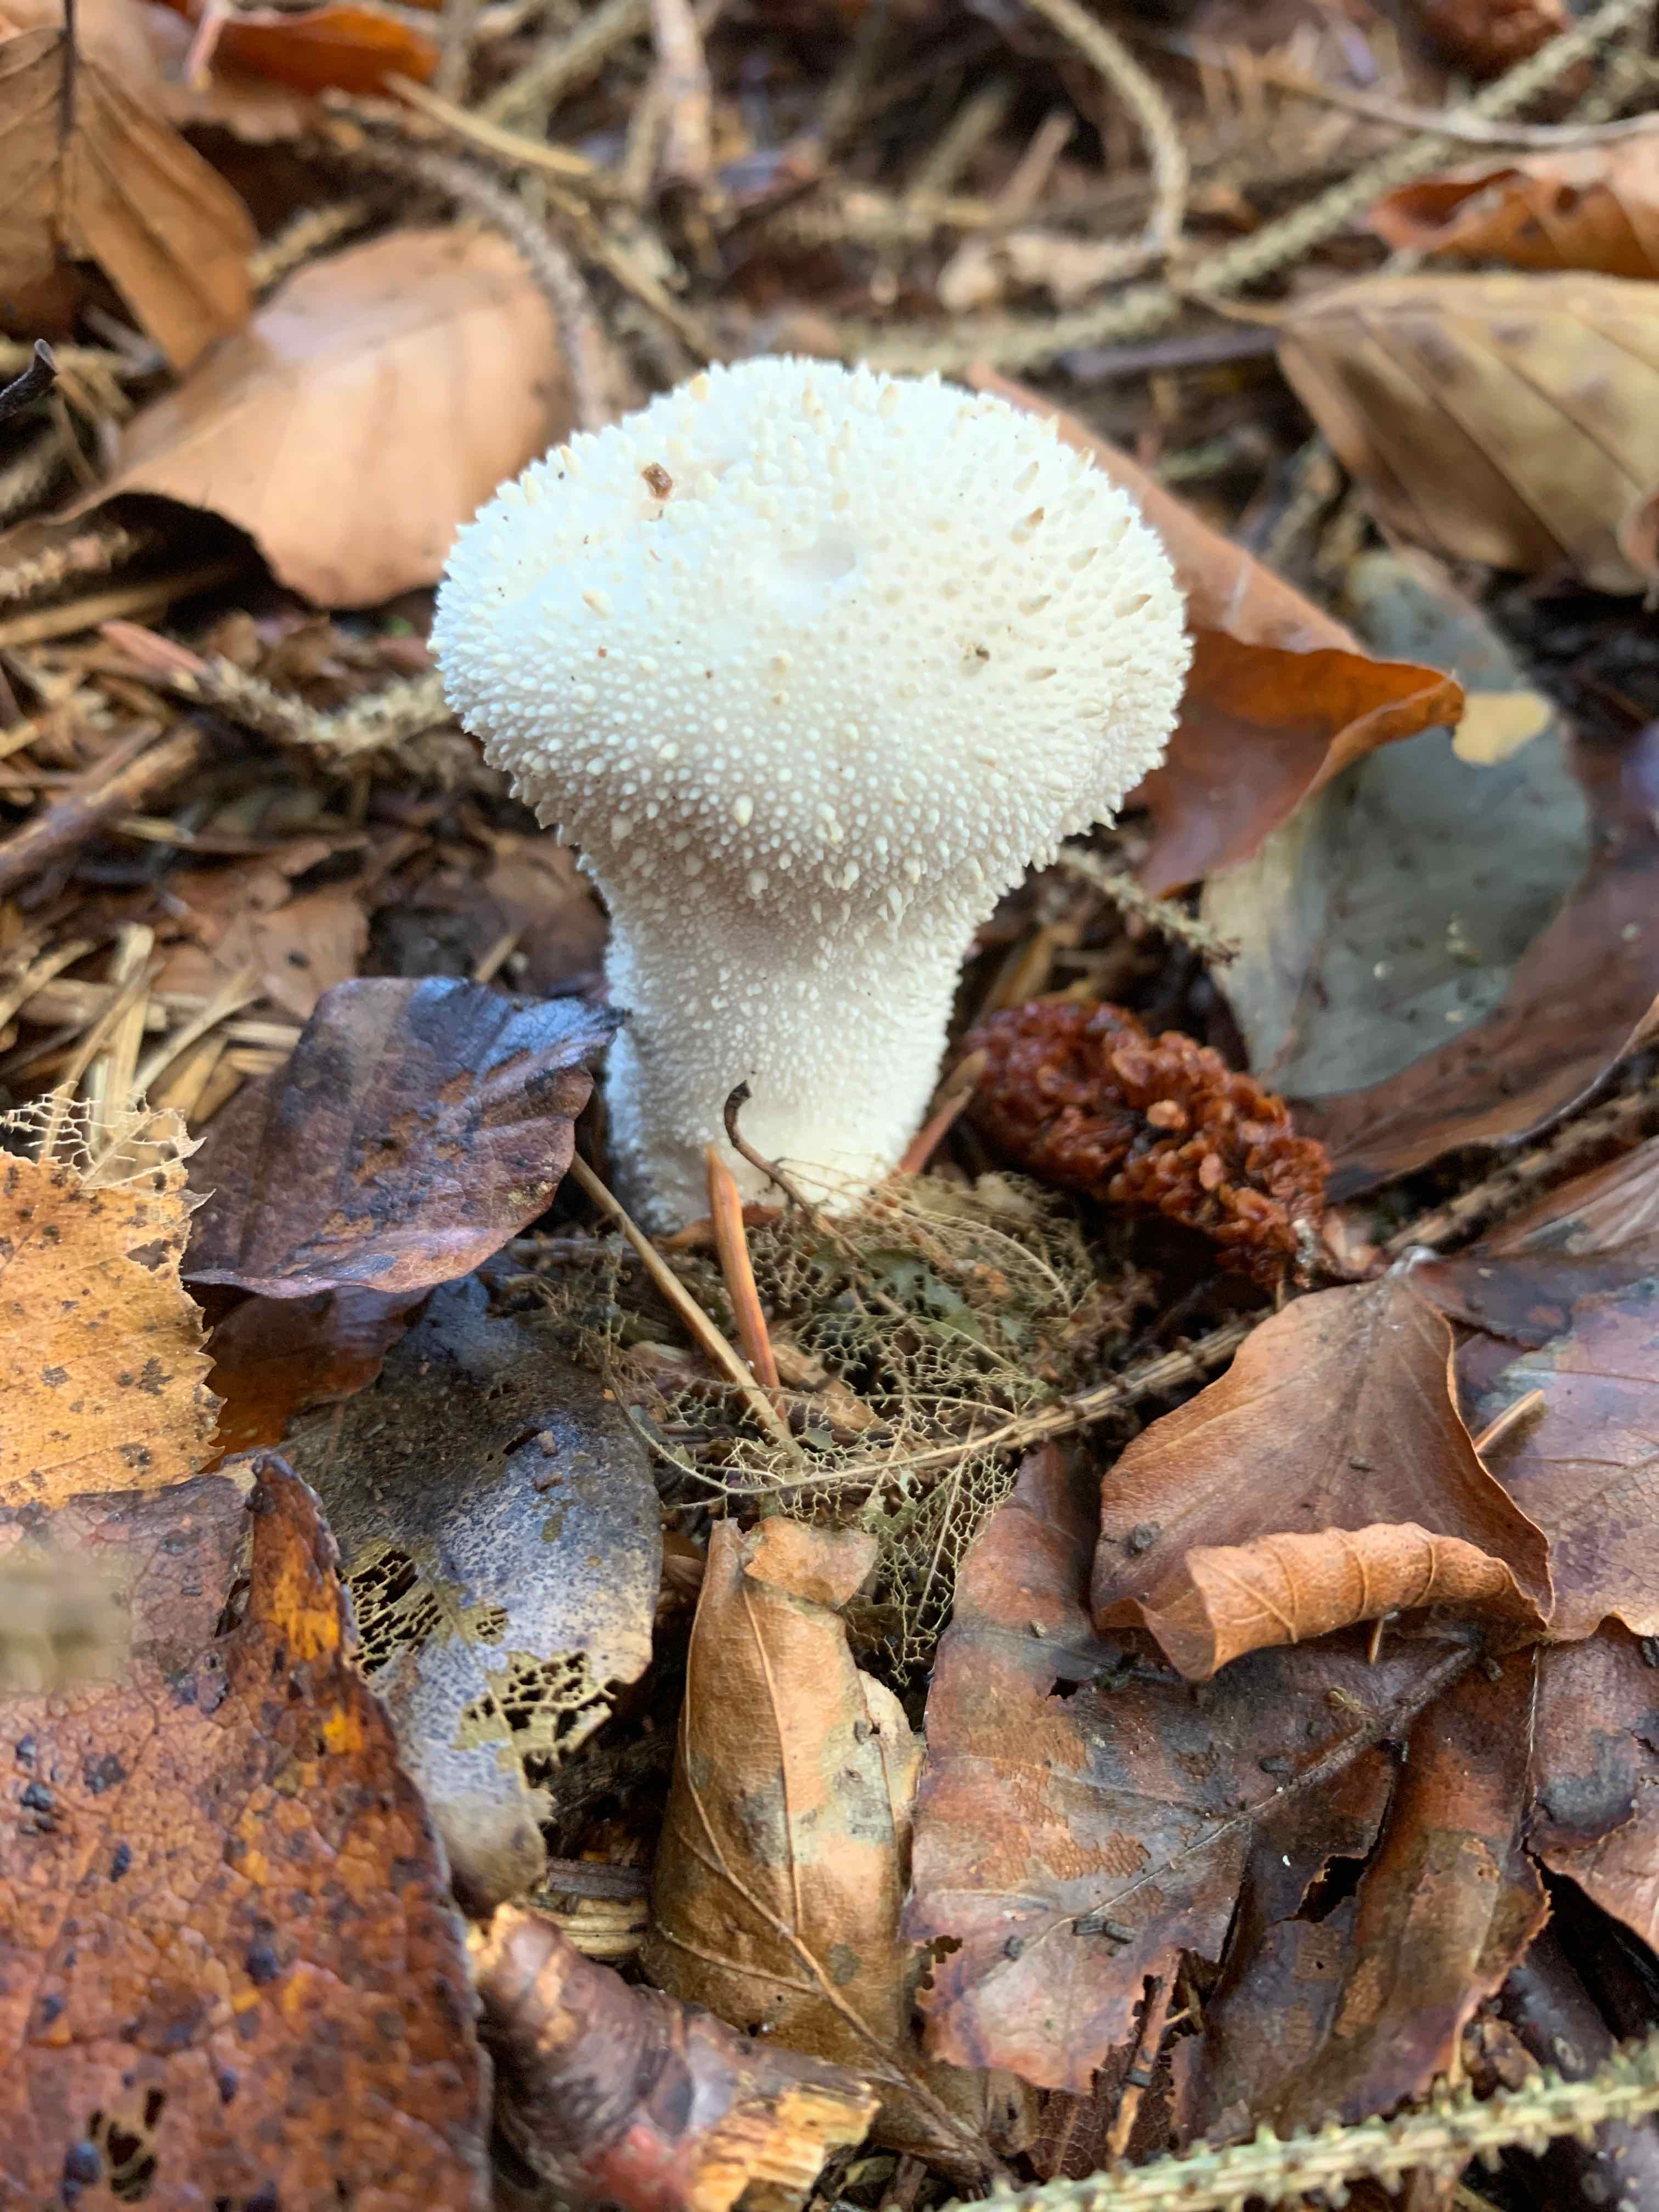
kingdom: Fungi
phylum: Basidiomycota
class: Agaricomycetes
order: Agaricales
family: Lycoperdaceae
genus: Lycoperdon
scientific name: Lycoperdon perlatum
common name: krystal-støvbold
